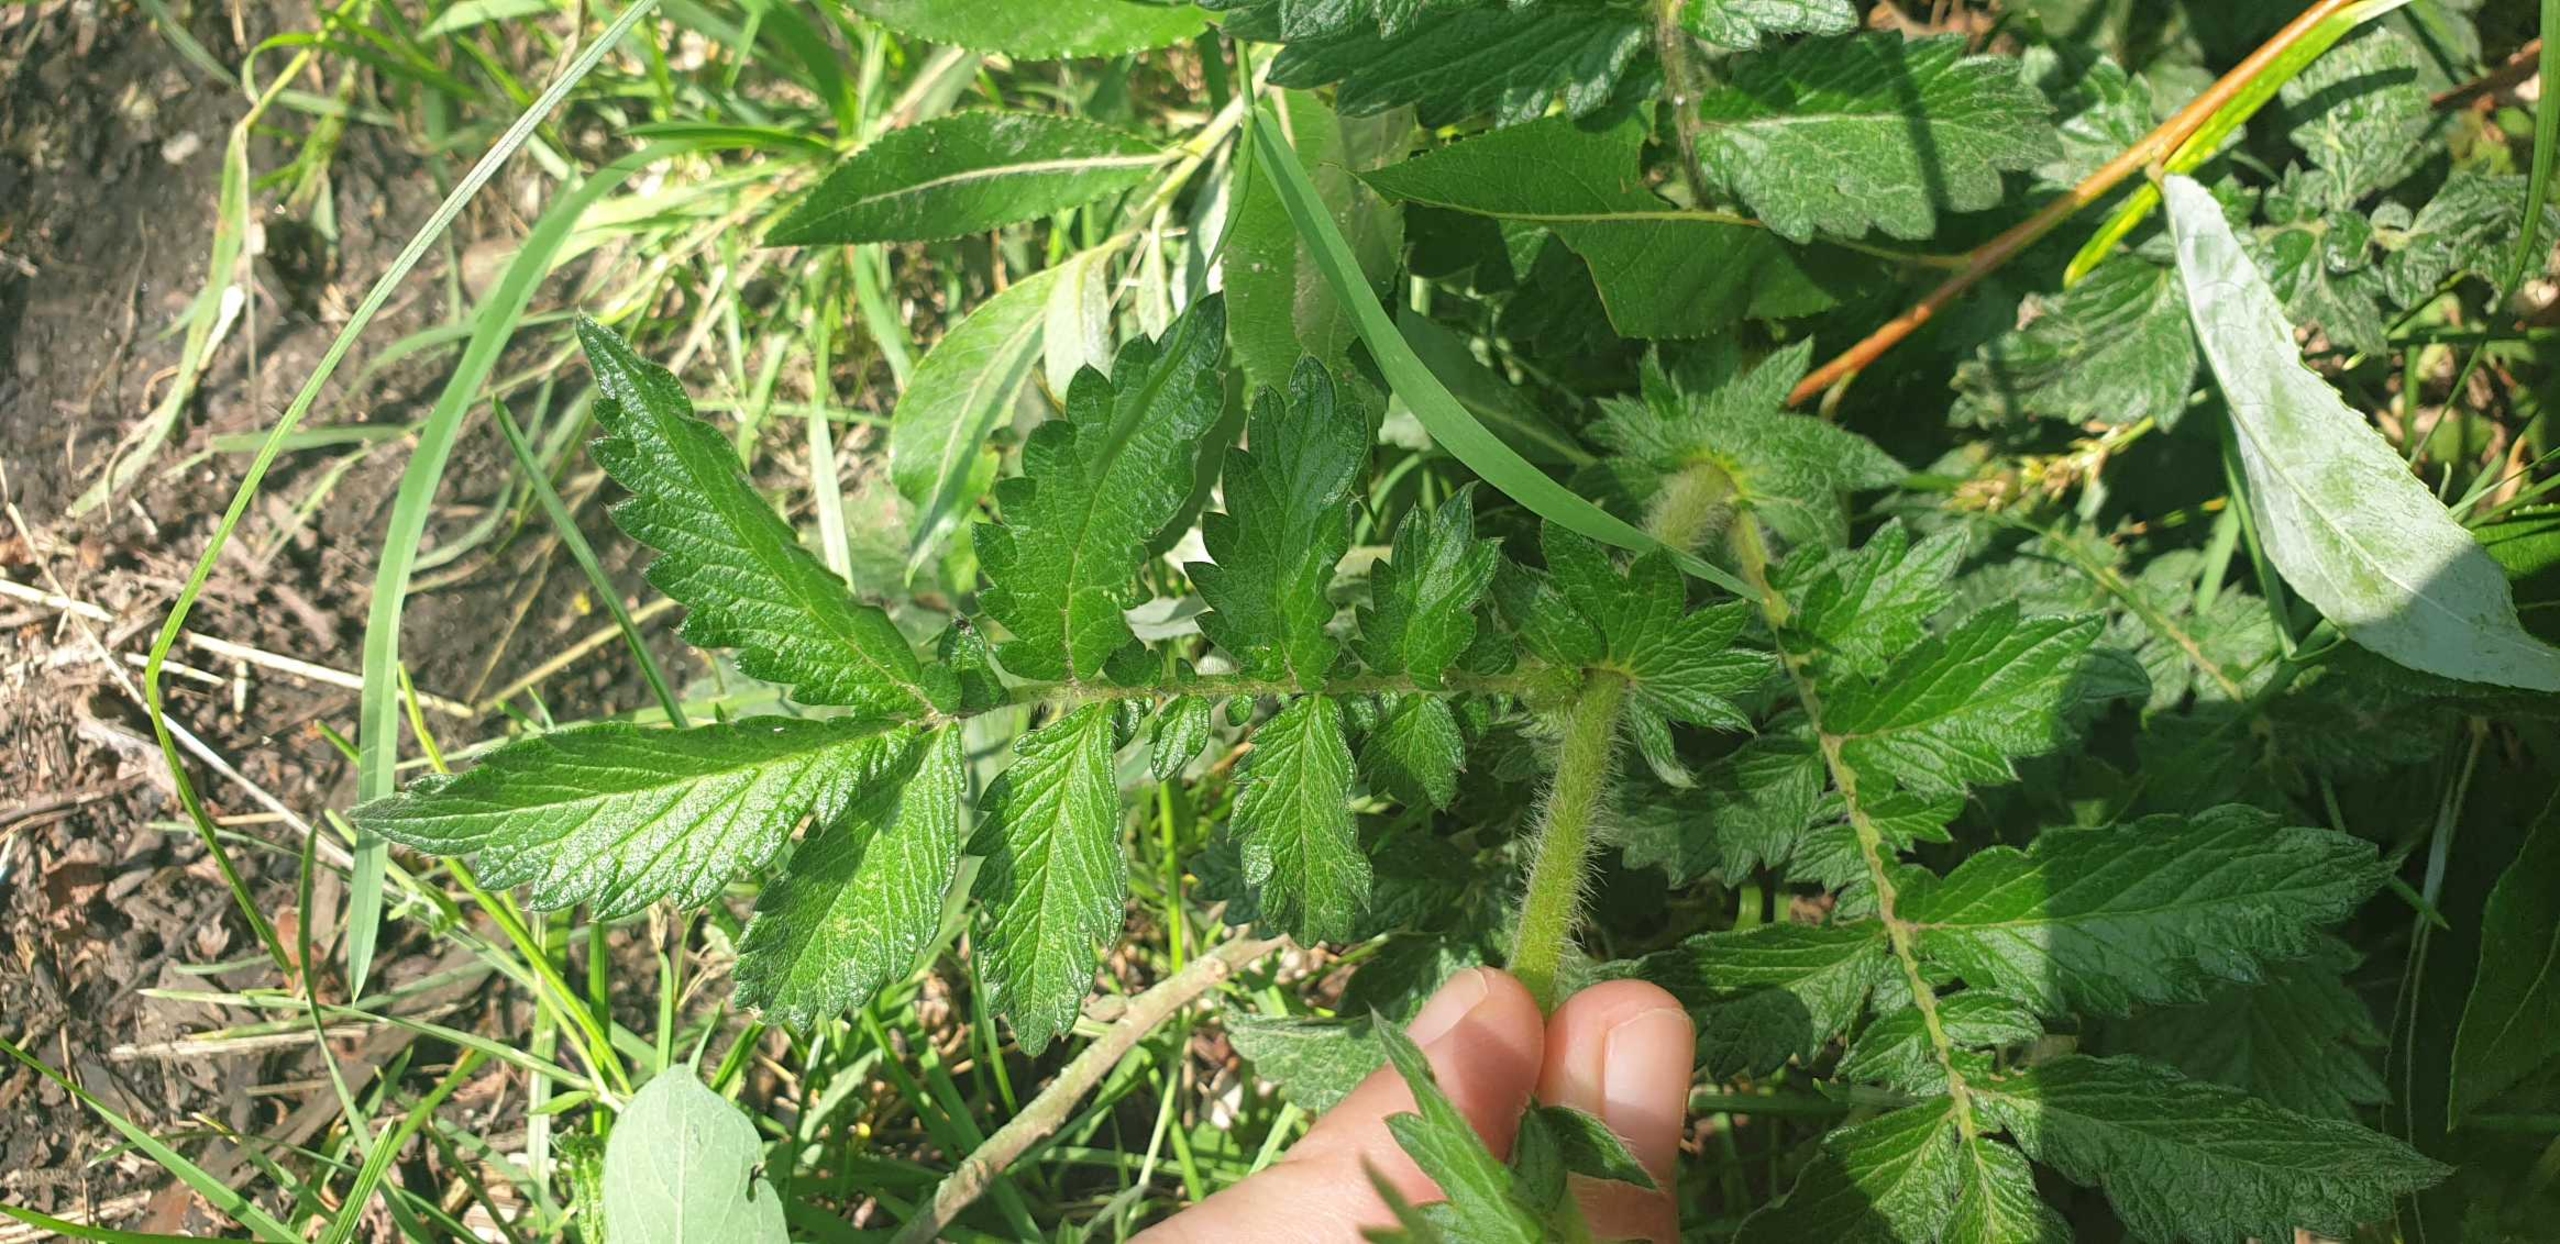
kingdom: Plantae
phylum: Tracheophyta
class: Magnoliopsida
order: Rosales
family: Rosaceae
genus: Agrimonia
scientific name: Agrimonia eupatoria
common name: Almindelig agermåne
